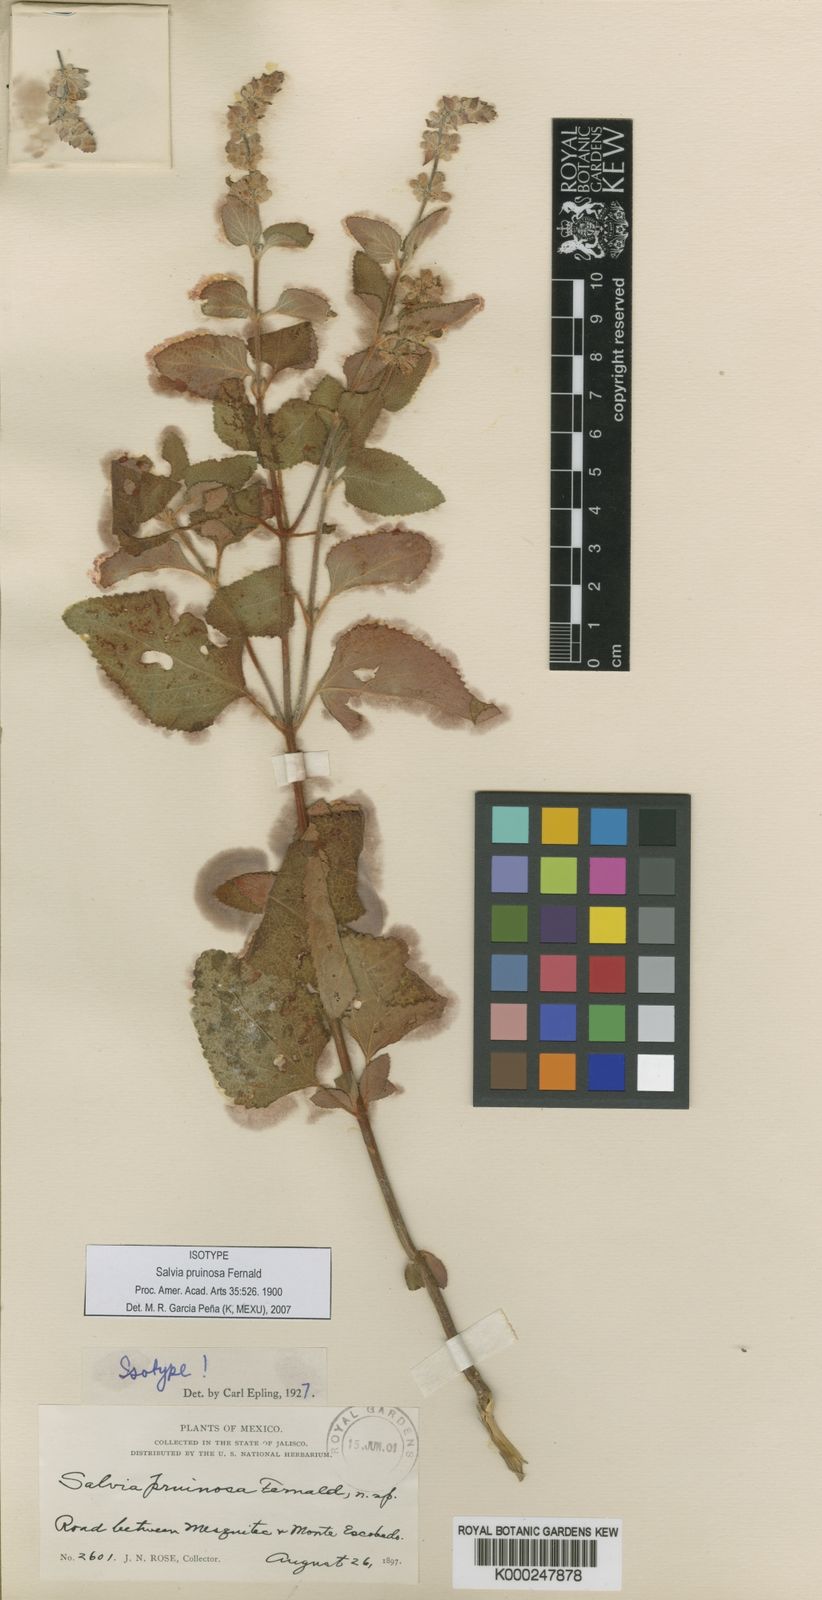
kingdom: Plantae
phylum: Tracheophyta
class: Magnoliopsida
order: Lamiales
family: Lamiaceae
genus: Salvia
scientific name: Salvia pruinosa
